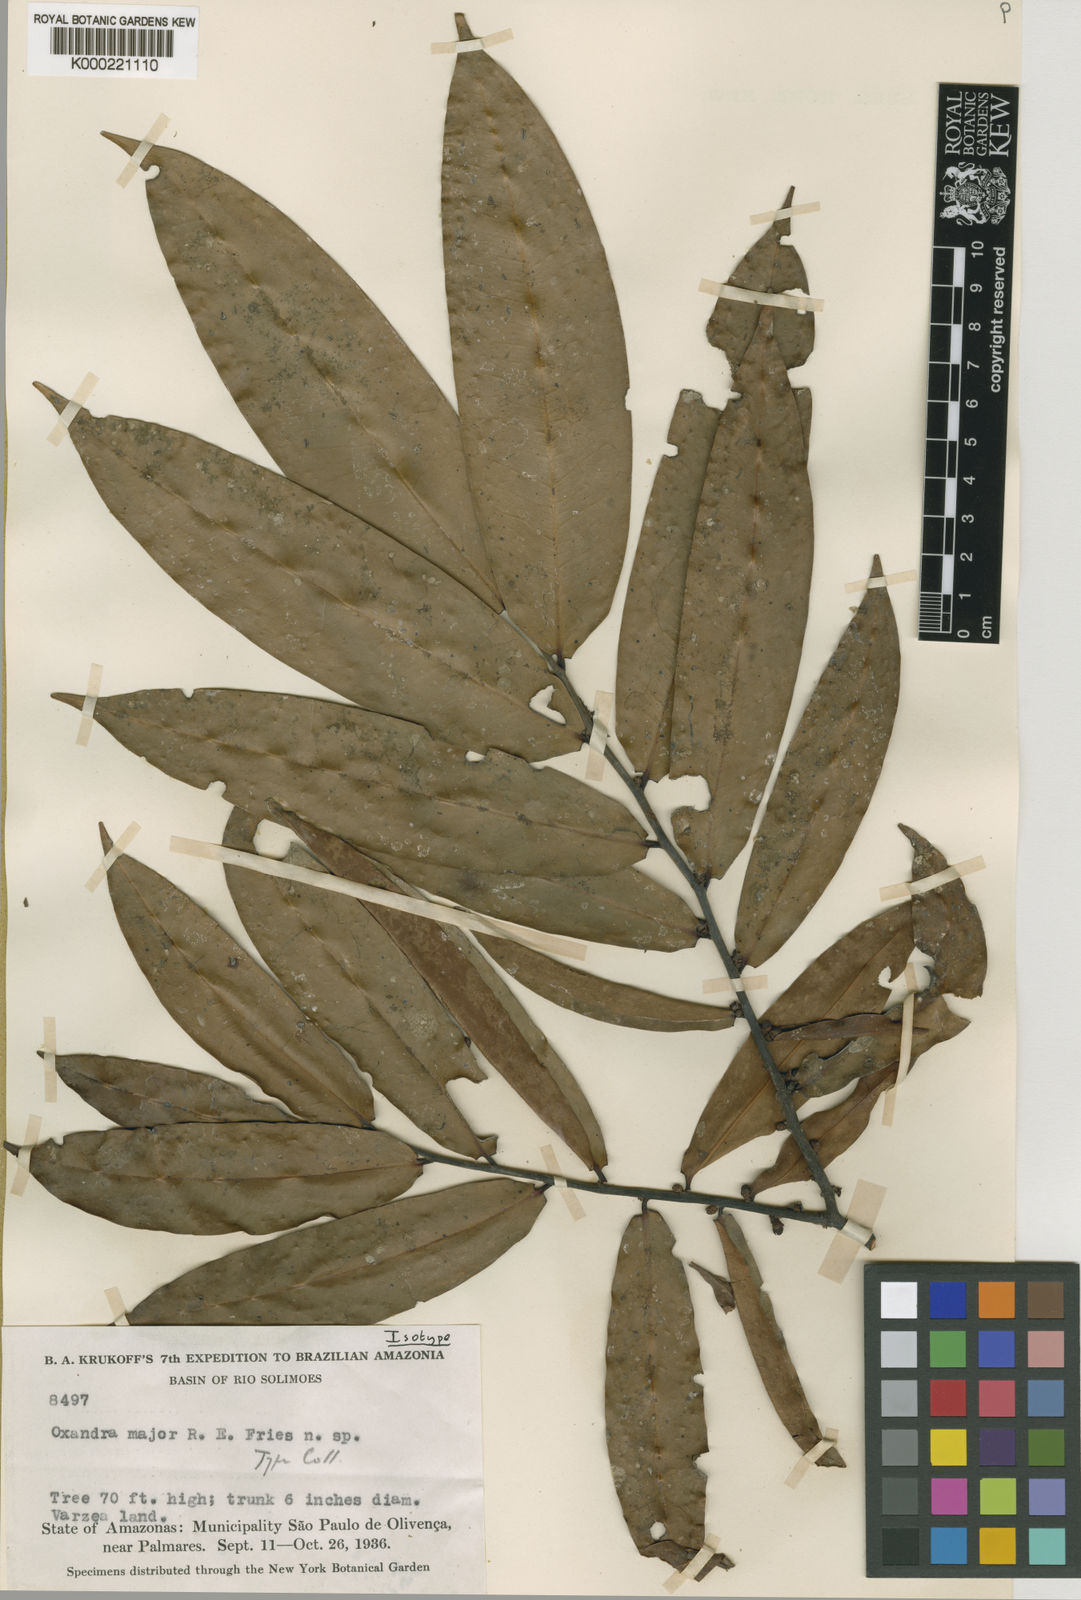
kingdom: Plantae
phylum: Tracheophyta
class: Magnoliopsida
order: Magnoliales
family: Annonaceae
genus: Oxandra
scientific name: Oxandra major
